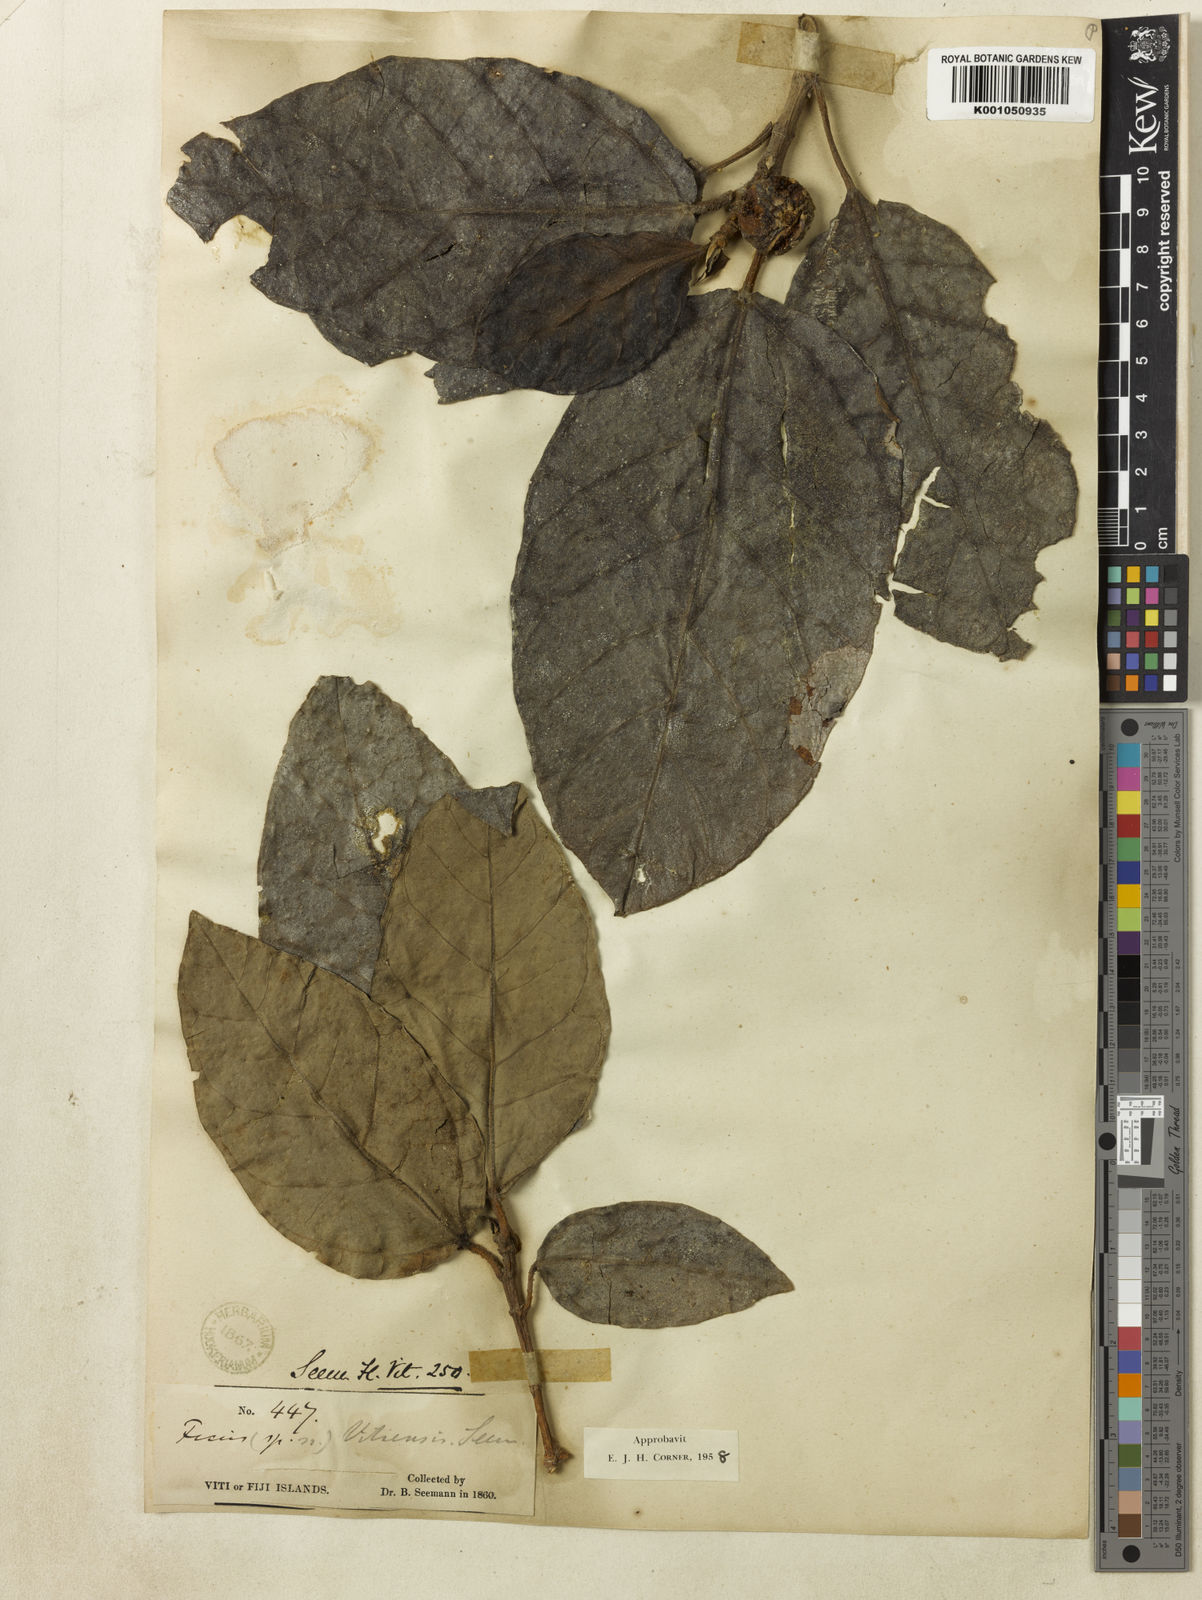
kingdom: Plantae
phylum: Tracheophyta
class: Magnoliopsida
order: Rosales
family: Moraceae
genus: Ficus
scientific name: Ficus vitiensis
